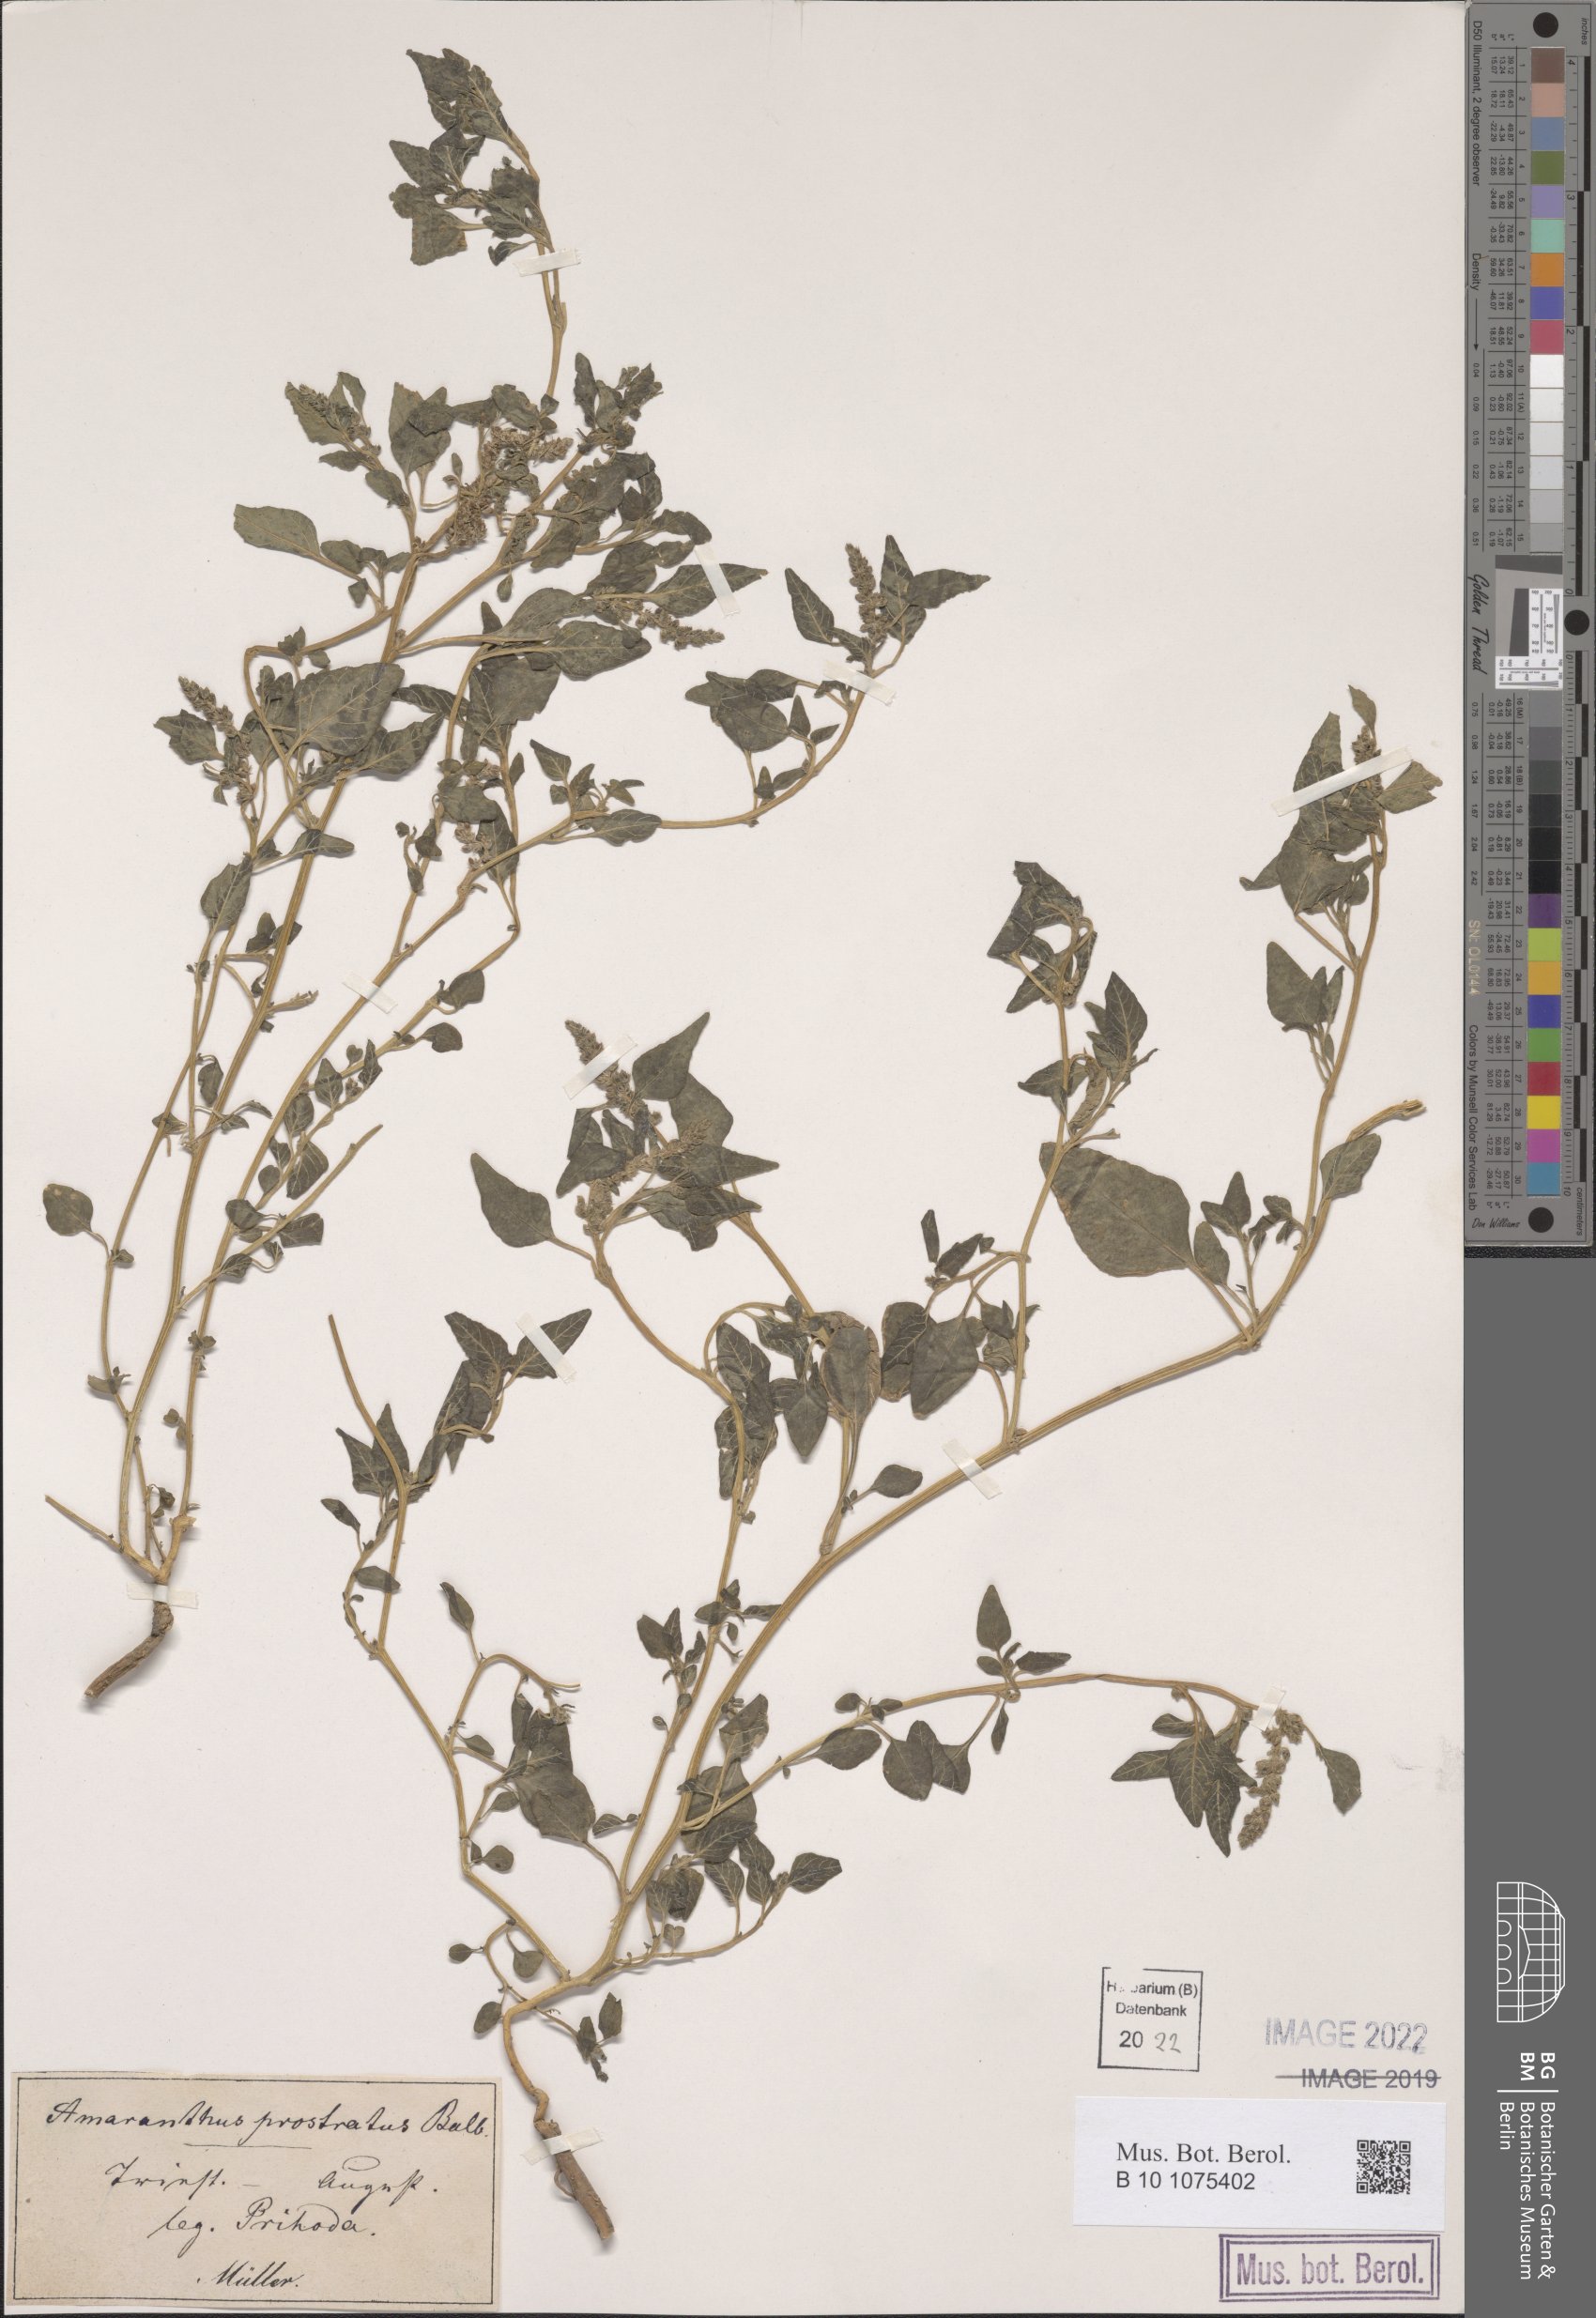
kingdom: Plantae
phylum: Tracheophyta
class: Magnoliopsida
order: Caryophyllales
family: Amaranthaceae
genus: Amaranthus
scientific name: Amaranthus deflexus
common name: Perennial pigweed
